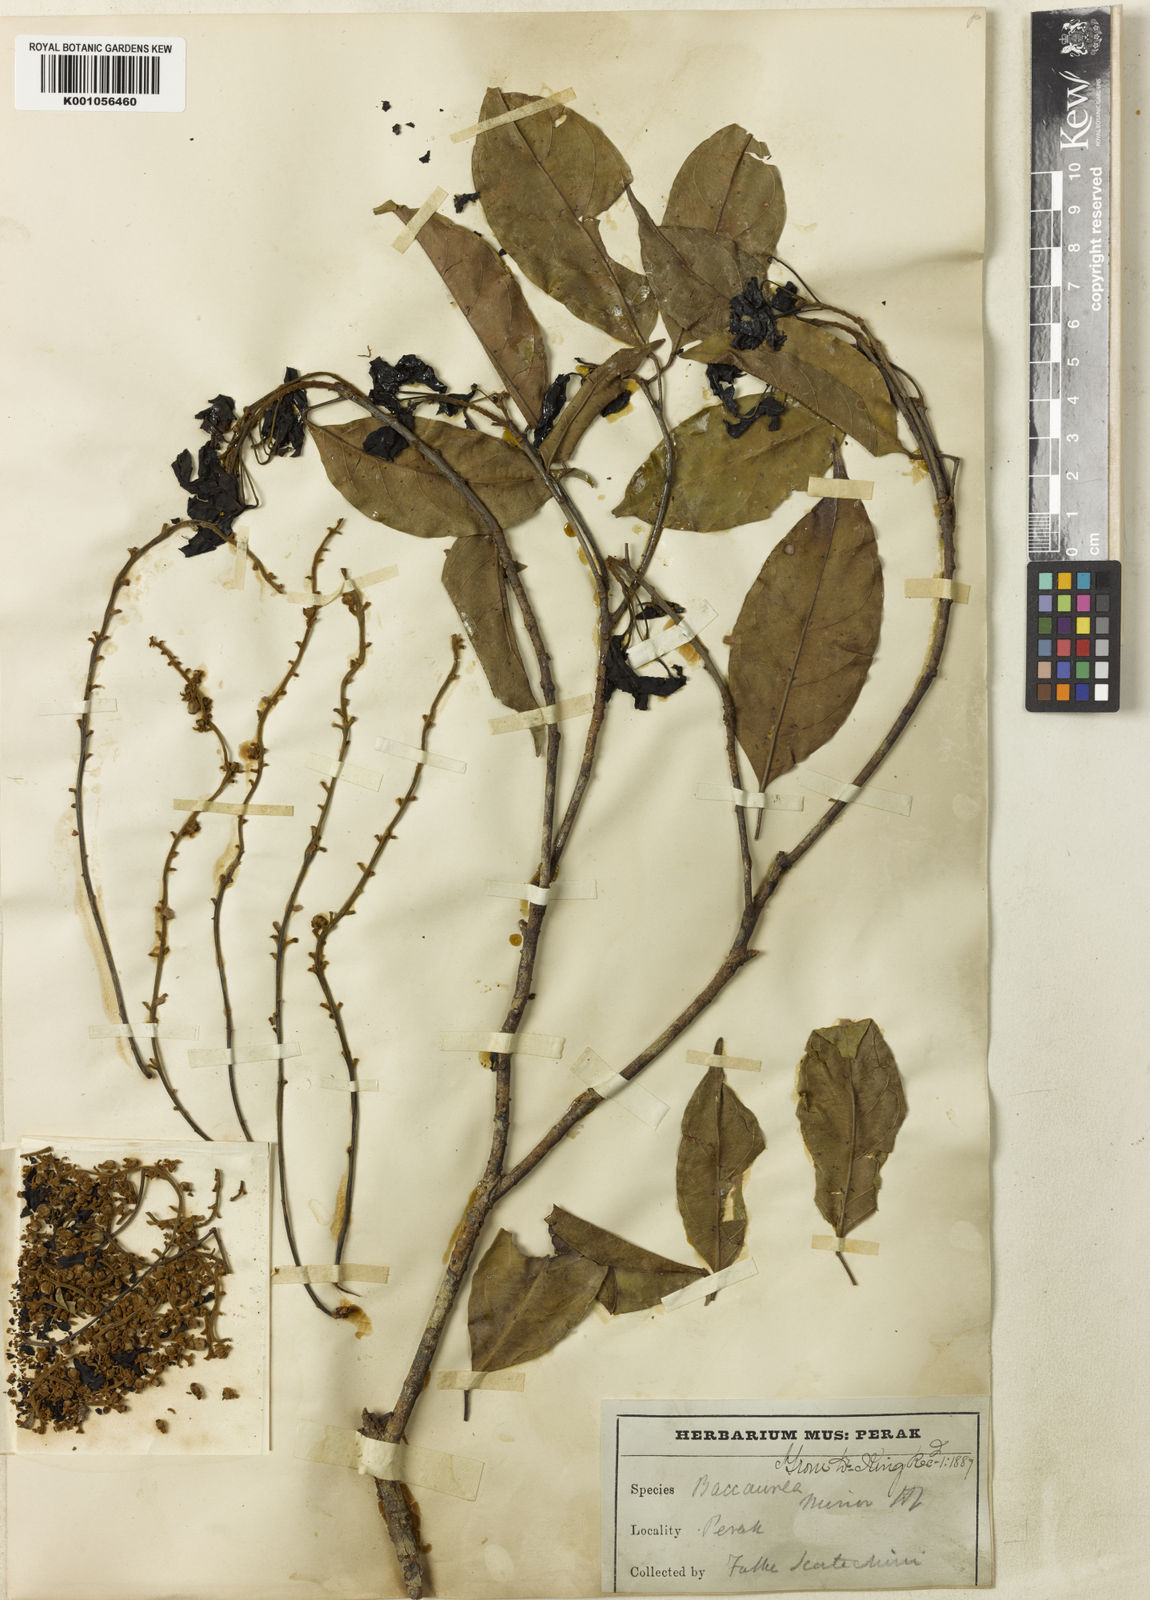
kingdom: Plantae
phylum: Tracheophyta
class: Magnoliopsida
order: Malpighiales
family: Phyllanthaceae
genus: Baccaurea
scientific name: Baccaurea minor
